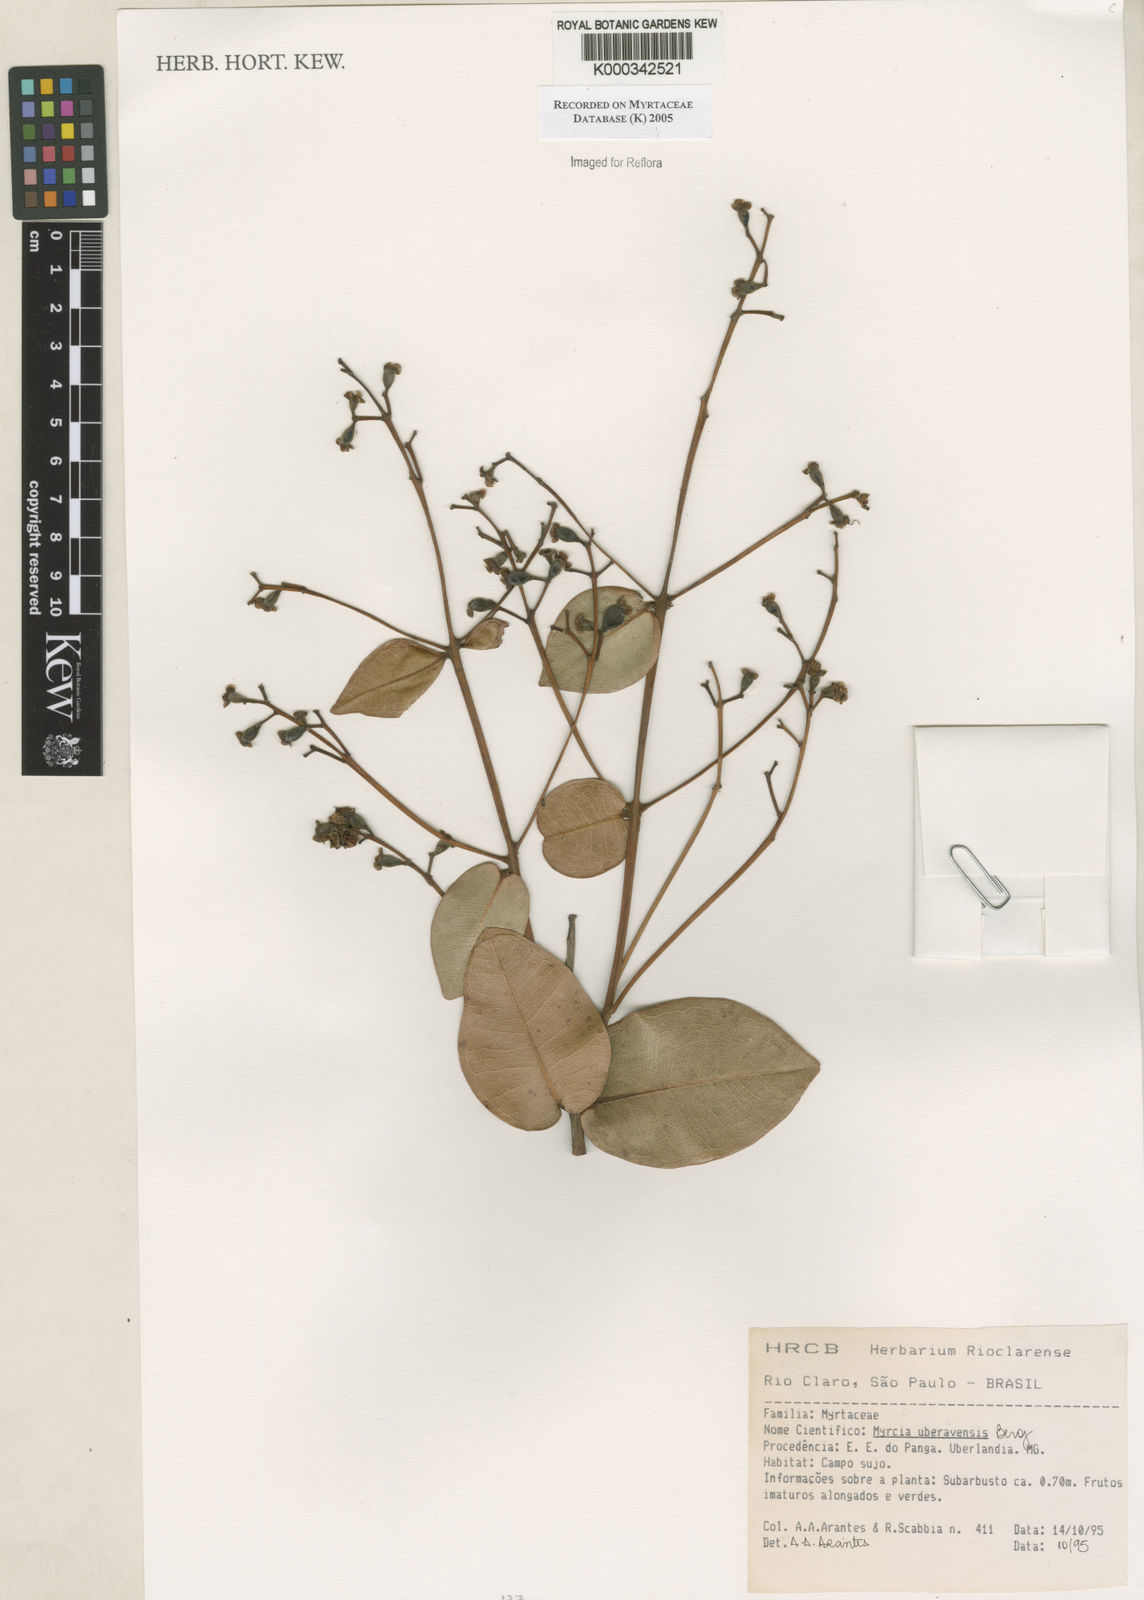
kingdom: Plantae
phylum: Tracheophyta
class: Magnoliopsida
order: Myrtales
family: Myrtaceae
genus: Myrcia
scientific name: Myrcia uberavensis
